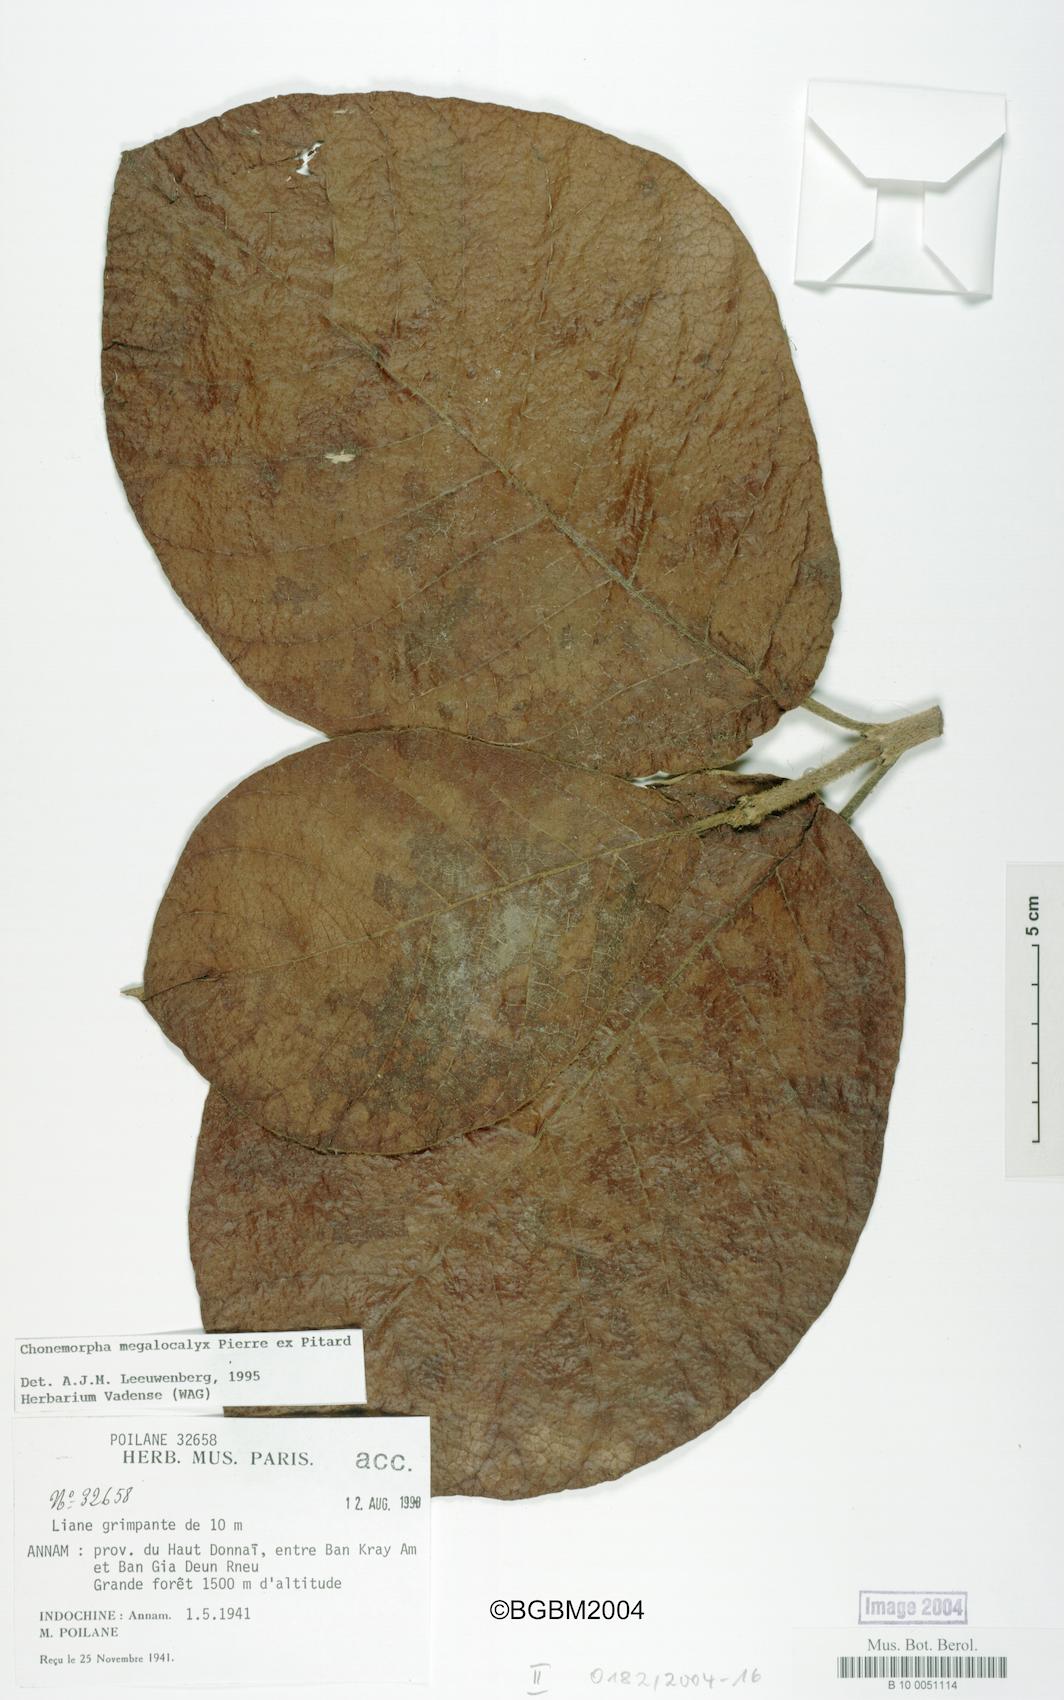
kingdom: Plantae
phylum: Tracheophyta
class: Magnoliopsida
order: Gentianales
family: Apocynaceae
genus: Chonemorpha
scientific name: Chonemorpha megacalyx
